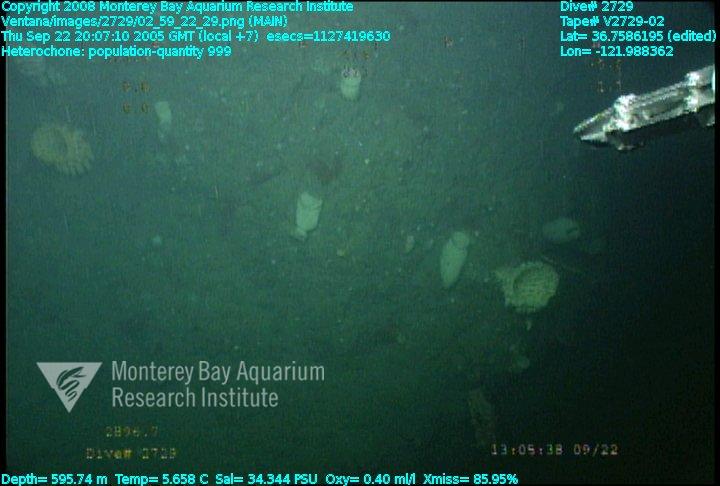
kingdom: Animalia
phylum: Porifera
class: Hexactinellida
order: Sceptrulophora
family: Aphrocallistidae
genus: Heterochone
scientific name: Heterochone
